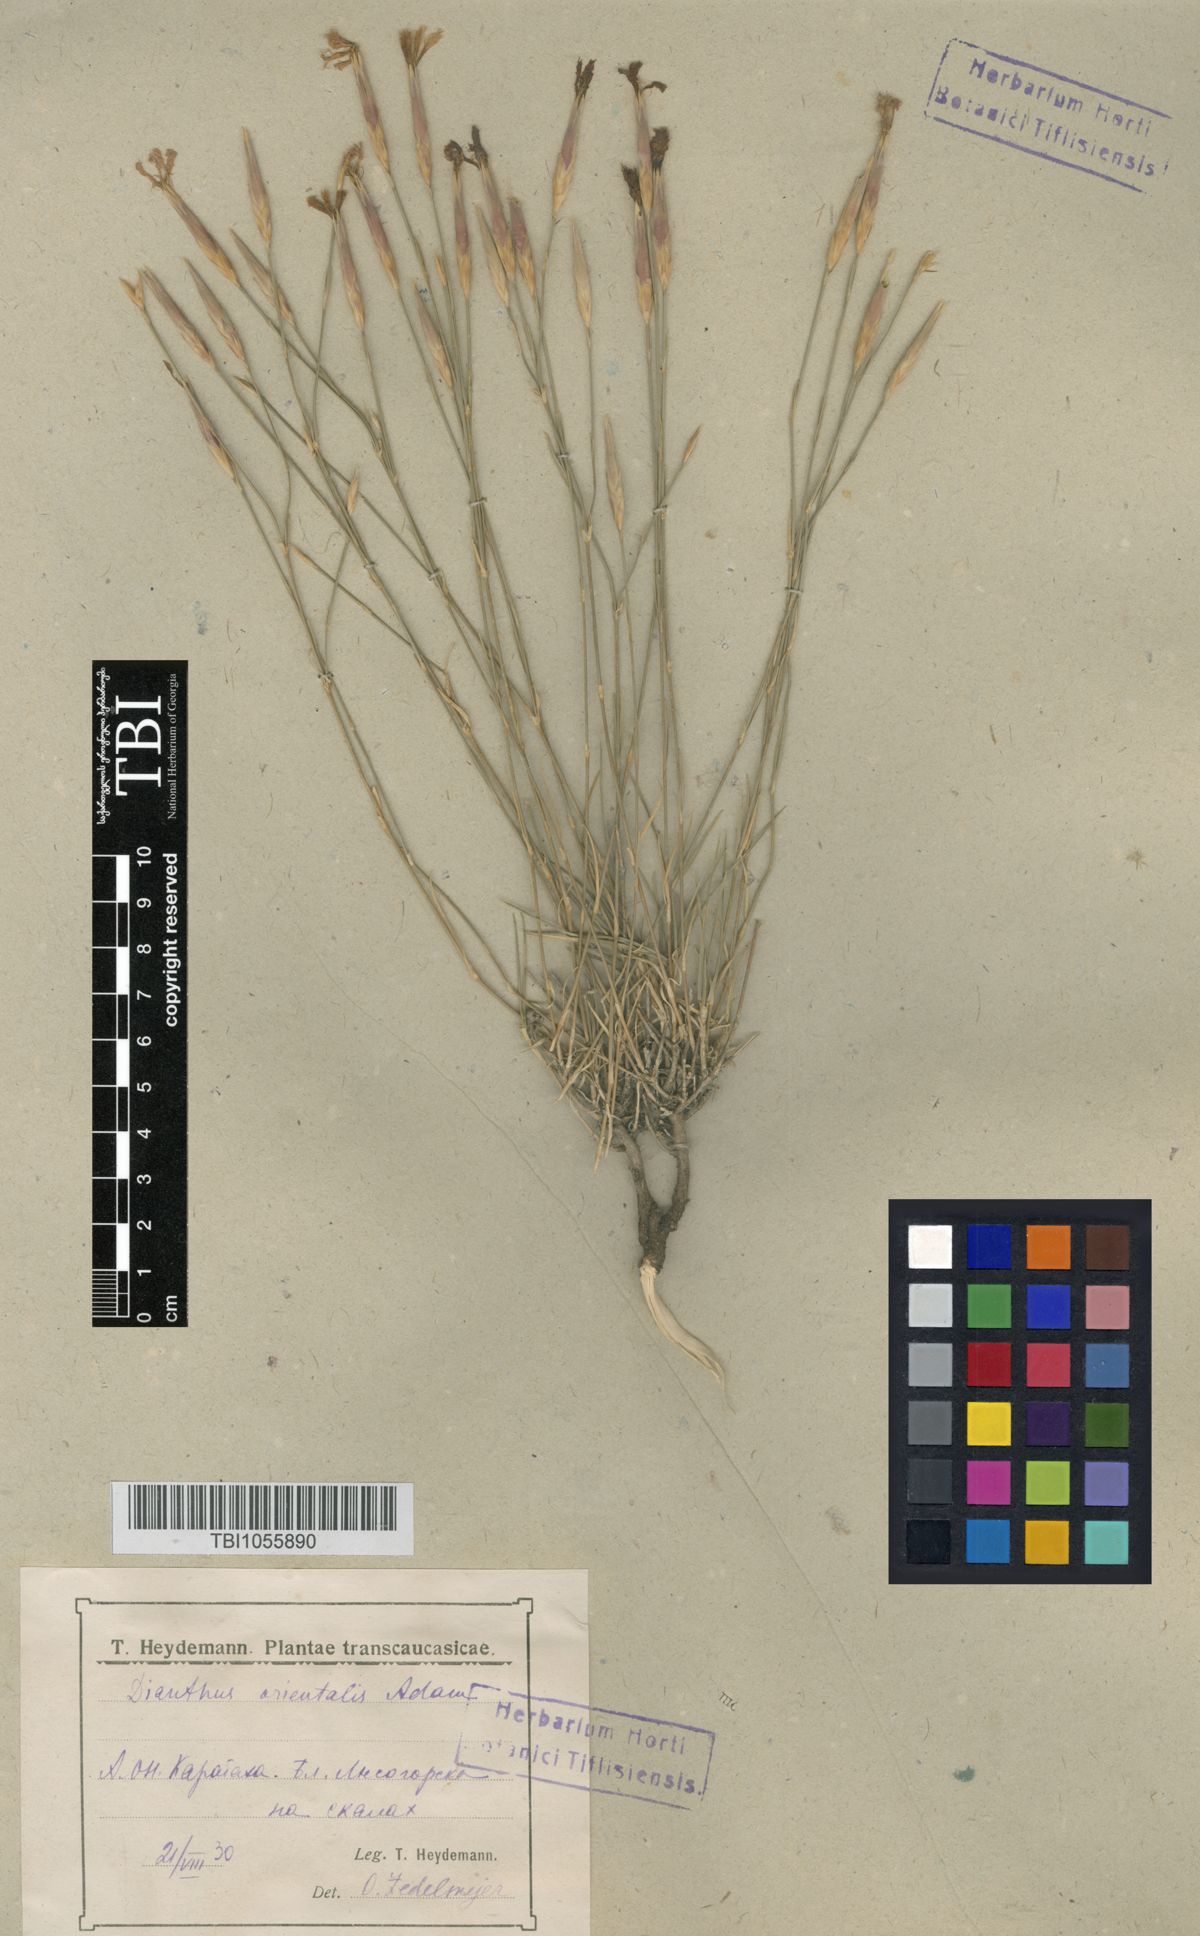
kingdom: Plantae
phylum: Tracheophyta
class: Magnoliopsida
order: Caryophyllales
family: Caryophyllaceae
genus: Dianthus
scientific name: Dianthus orientalis
